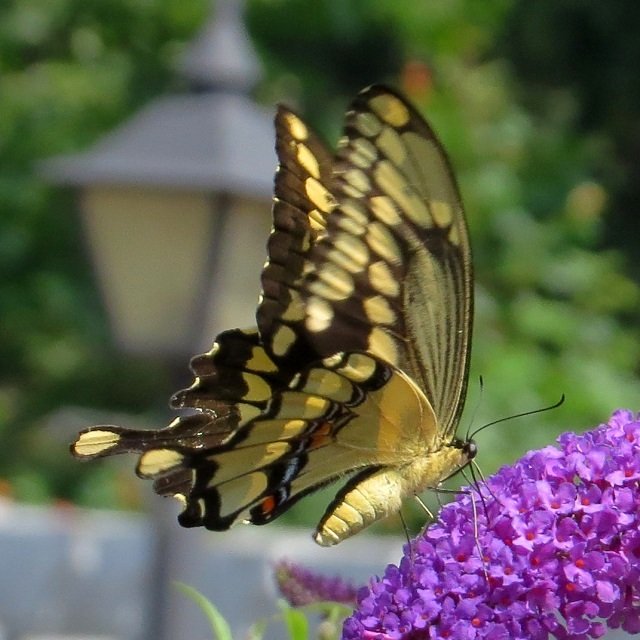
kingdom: Animalia
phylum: Arthropoda
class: Insecta
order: Lepidoptera
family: Papilionidae
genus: Papilio
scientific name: Papilio cresphontes
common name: Eastern Giant Swallowtail
